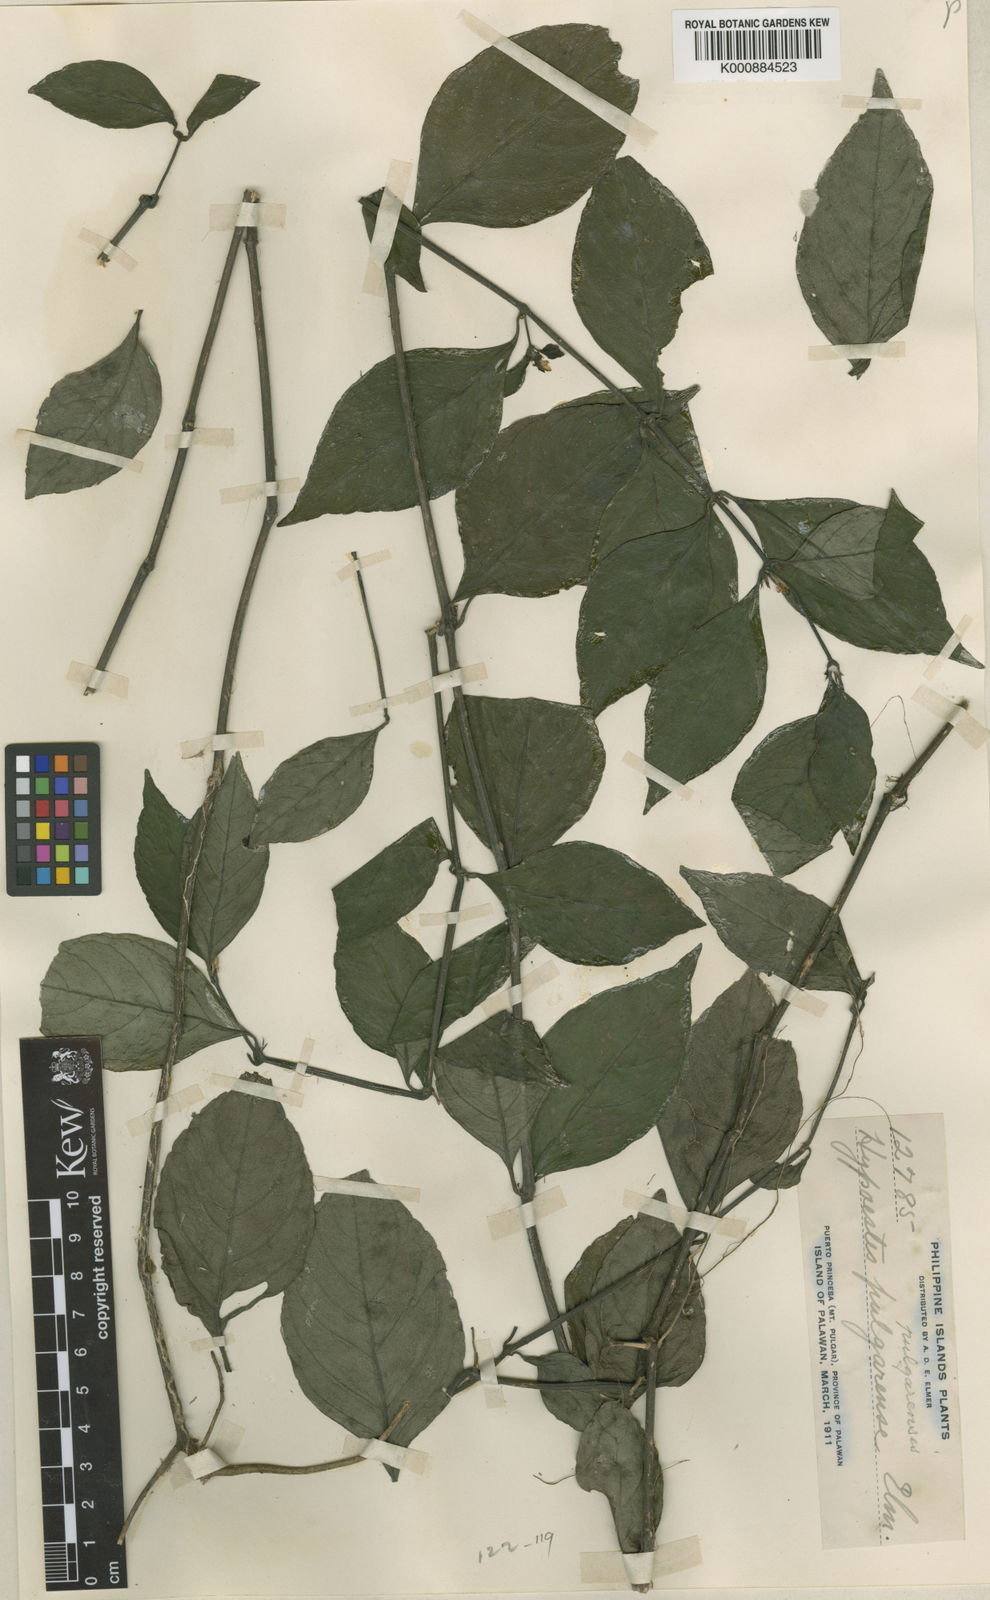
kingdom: Plantae
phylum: Tracheophyta
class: Magnoliopsida
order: Lamiales
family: Acanthaceae
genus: Justicia
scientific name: Justicia pulgarensis
